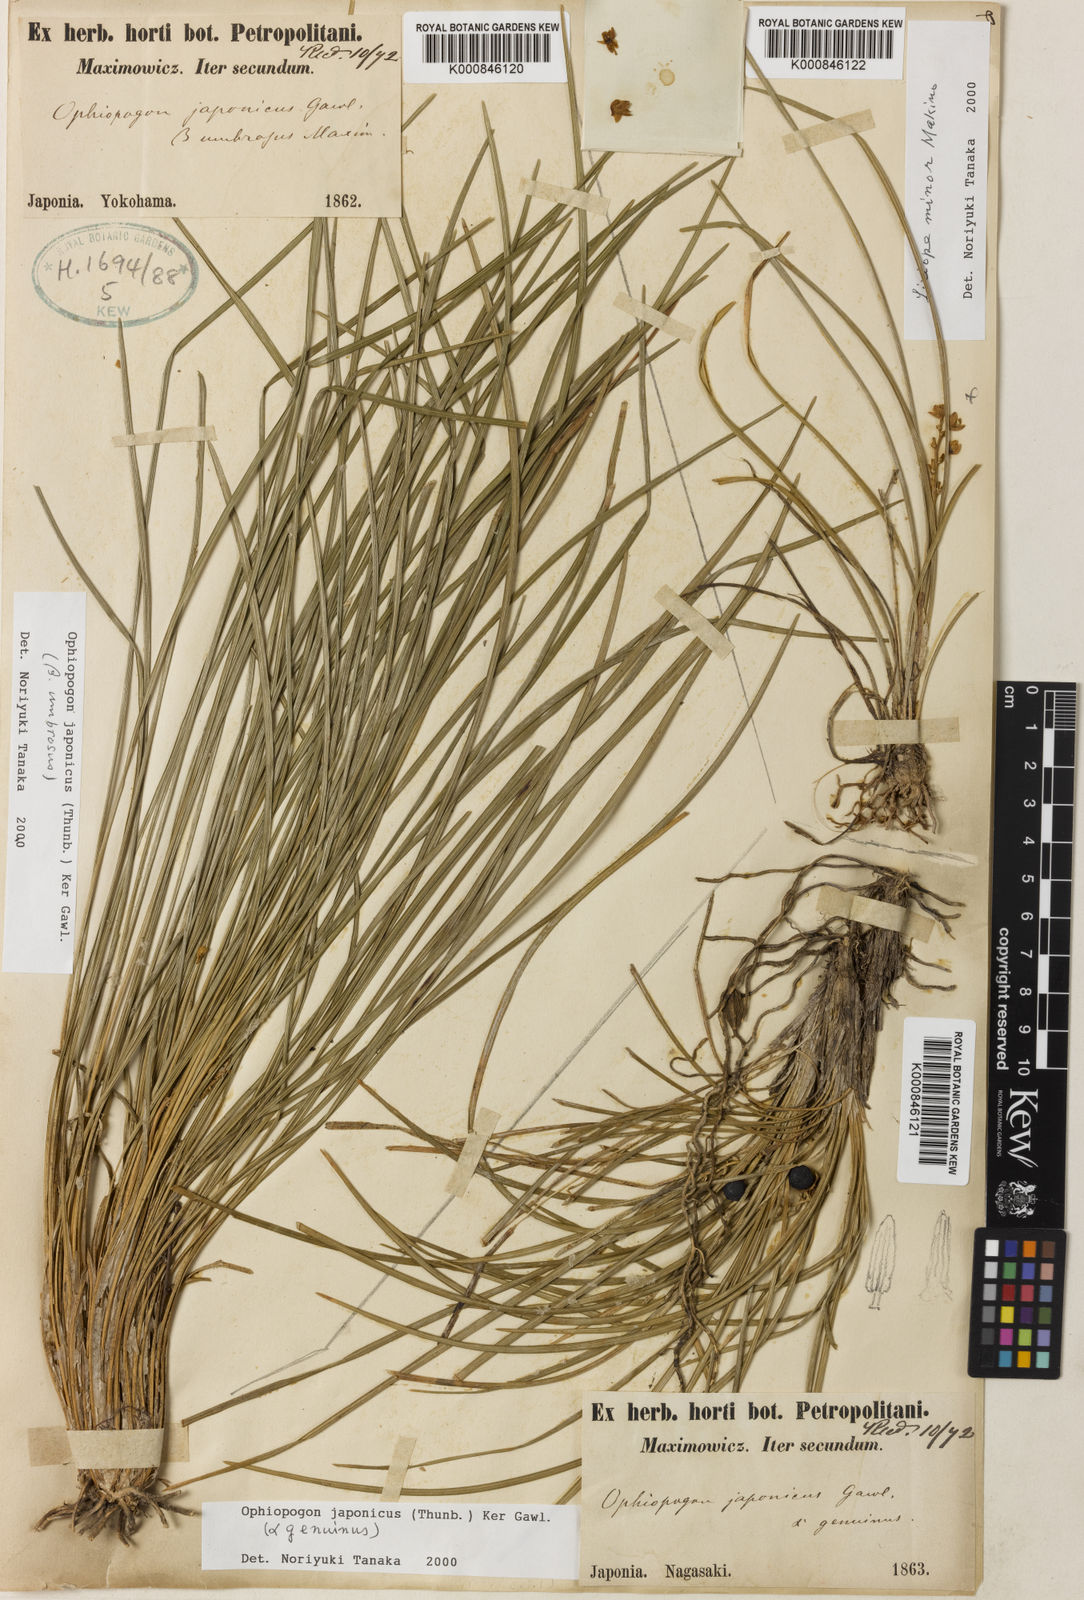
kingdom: Plantae
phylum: Tracheophyta
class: Liliopsida
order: Asparagales
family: Asparagaceae
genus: Ophiopogon
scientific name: Ophiopogon japonicus
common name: Dwarf lilyturf
